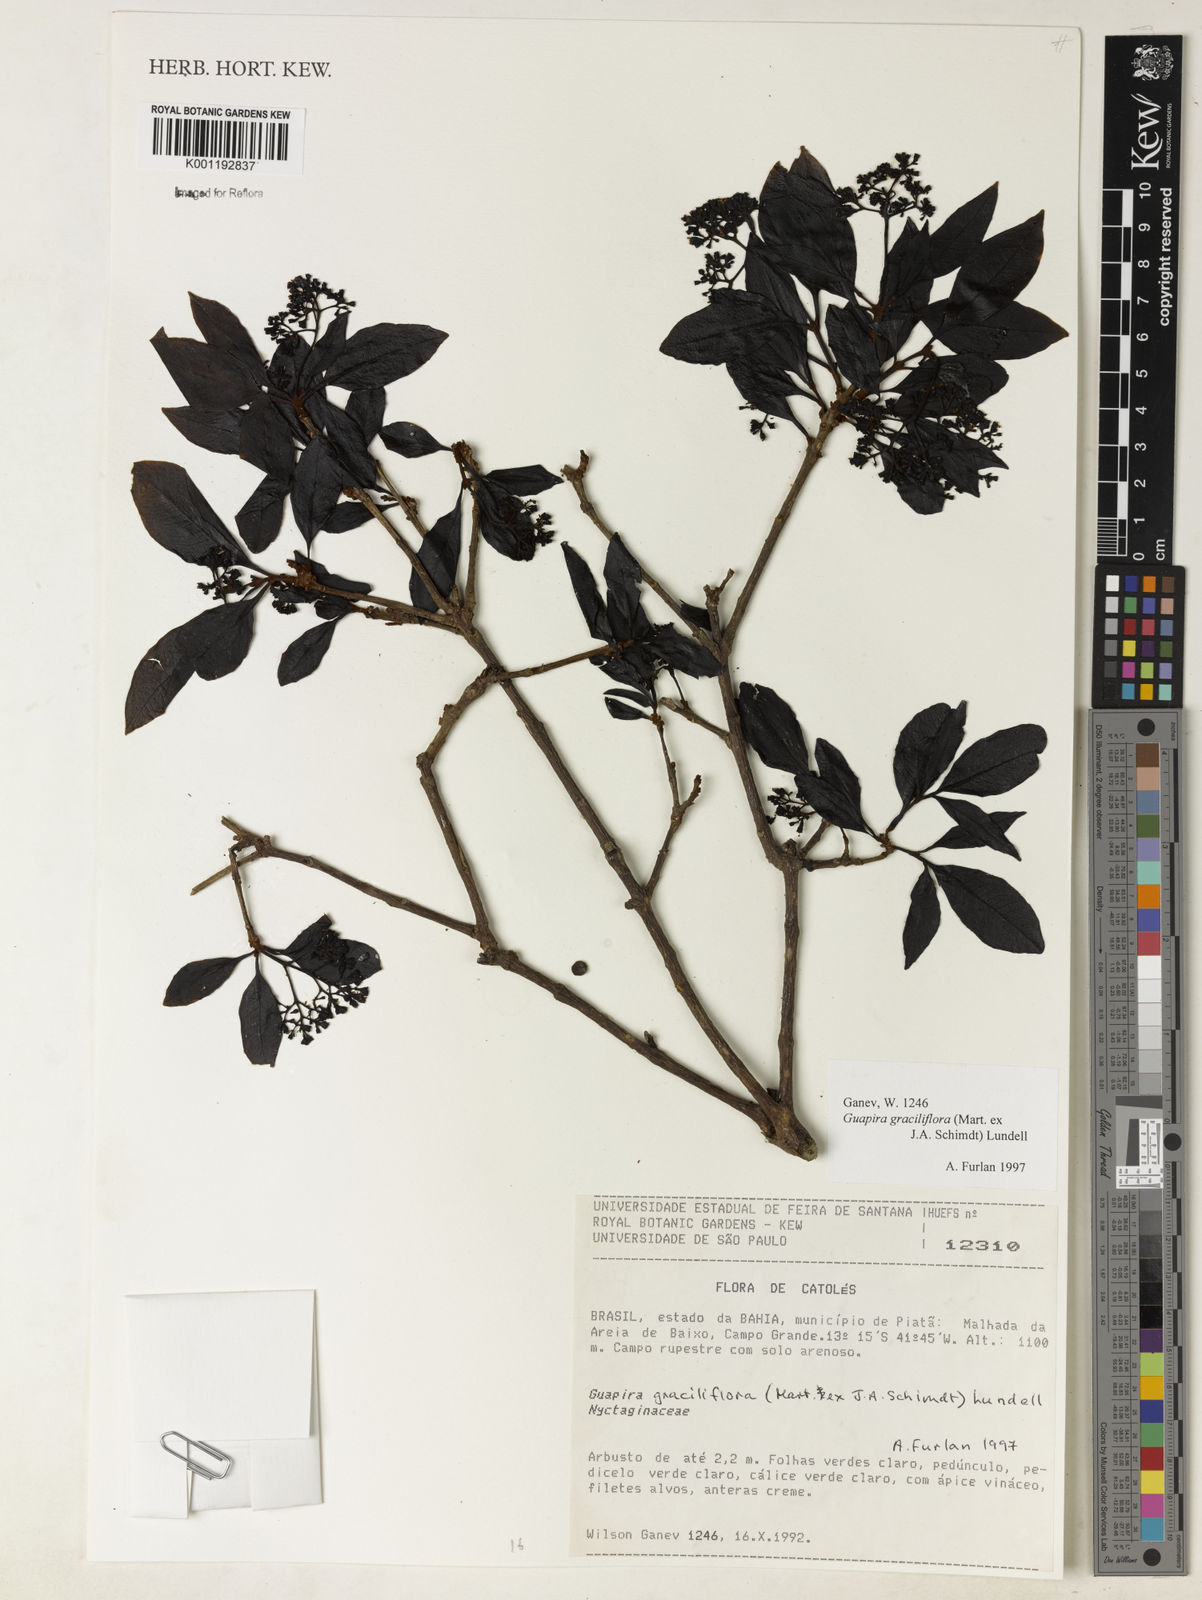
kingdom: Plantae
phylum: Tracheophyta
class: Magnoliopsida
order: Caryophyllales
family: Nyctaginaceae
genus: Guapira
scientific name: Guapira graciliflora
